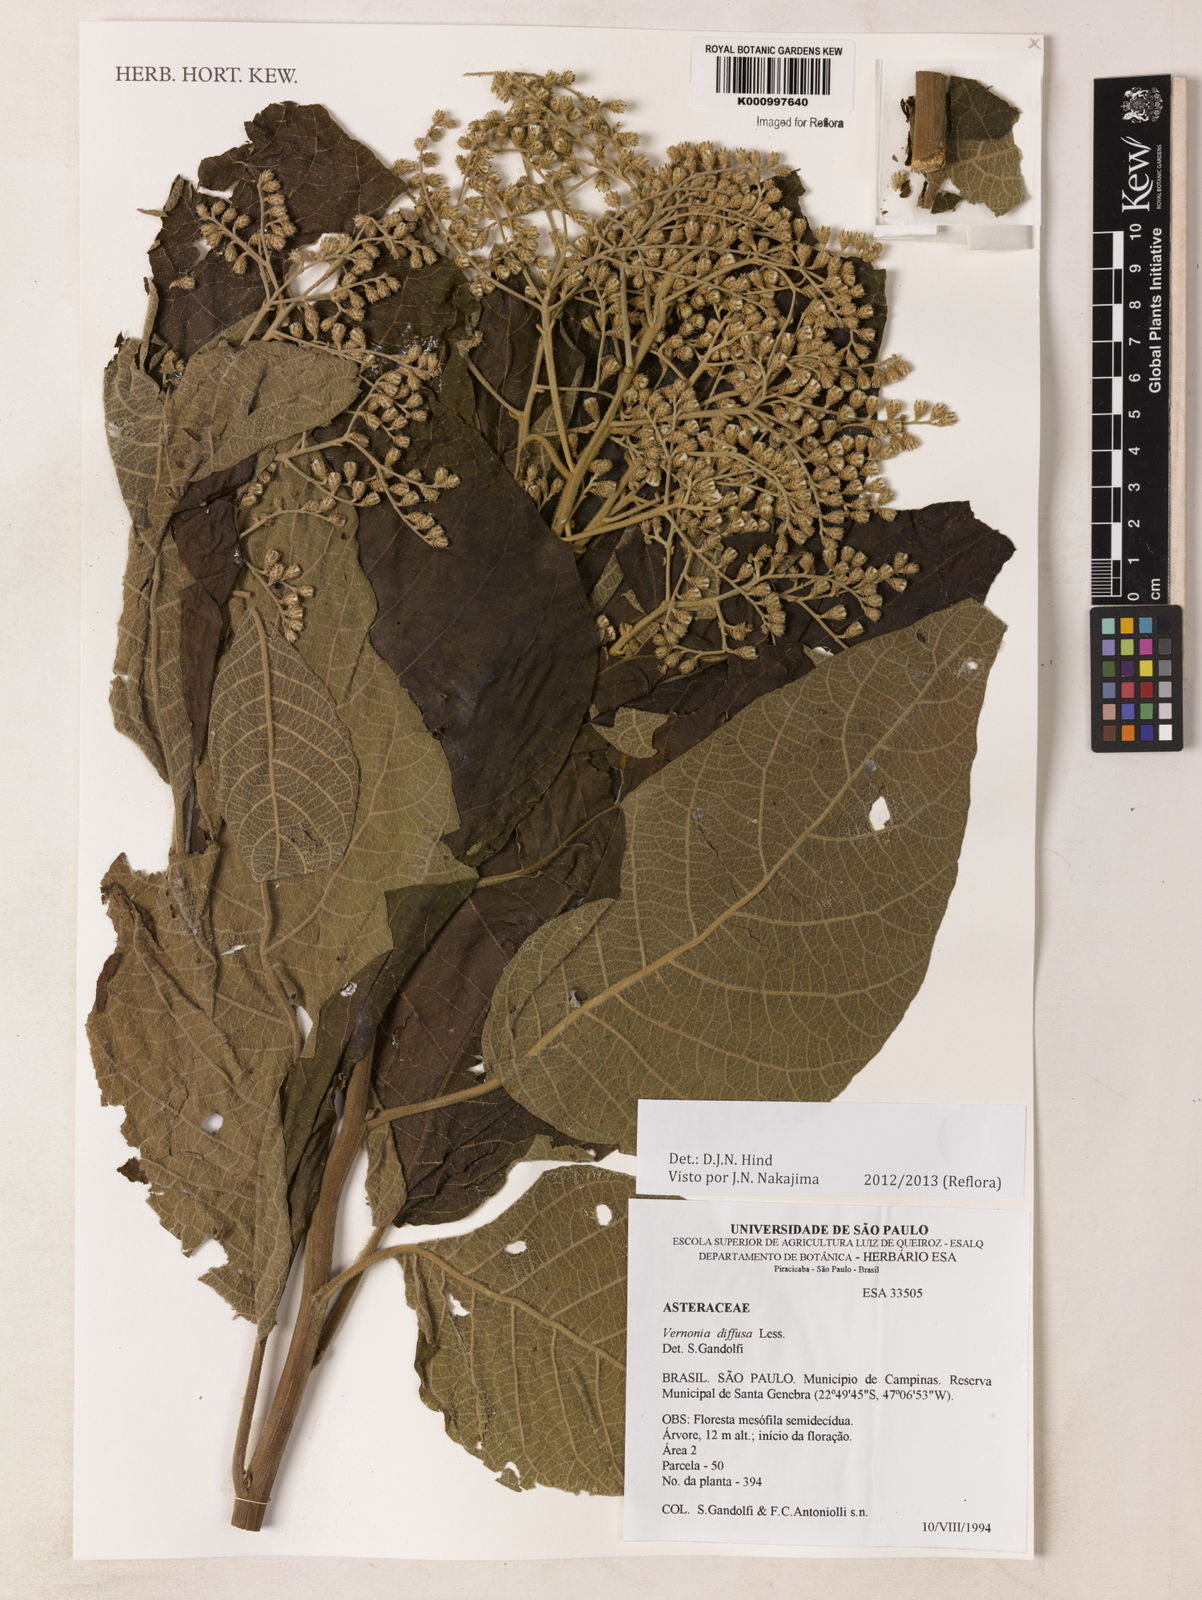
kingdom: Plantae
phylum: Tracheophyta
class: Magnoliopsida
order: Asterales
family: Asteraceae
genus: Vernonanthura
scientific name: Vernonanthura divaricata
